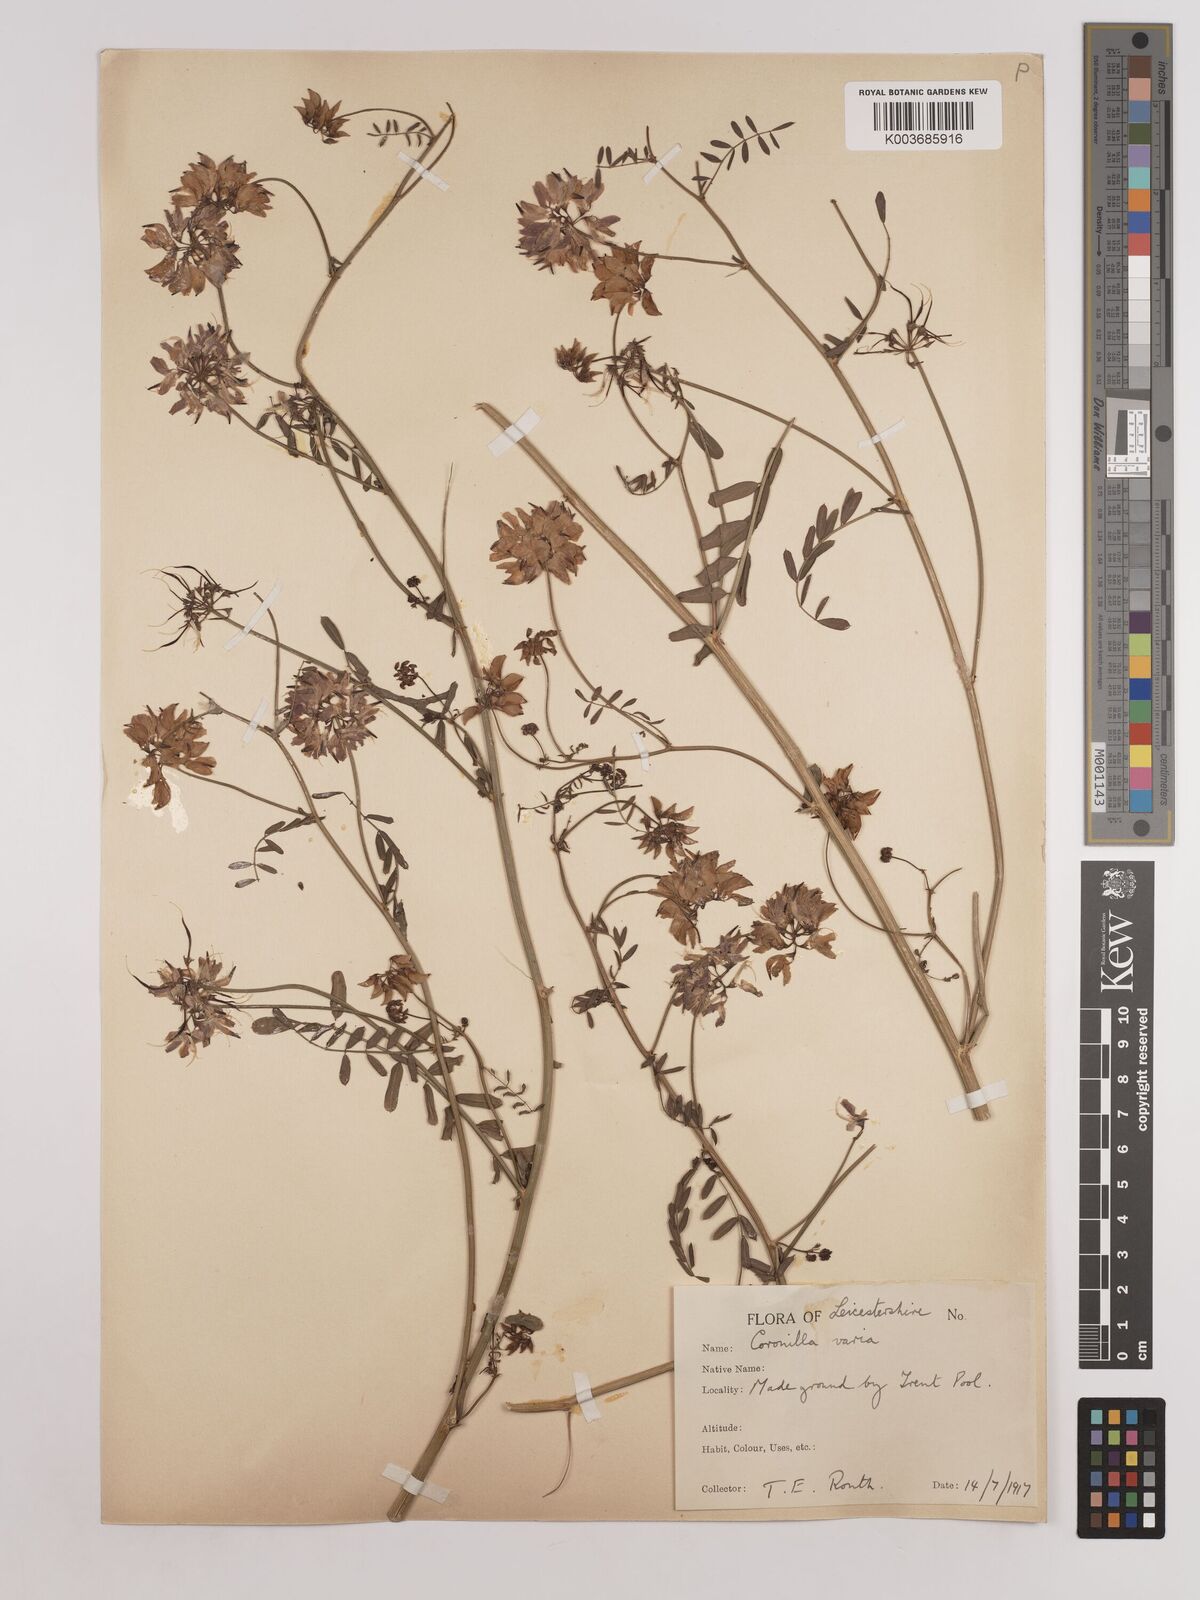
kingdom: Plantae
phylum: Tracheophyta
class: Magnoliopsida
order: Fabales
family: Fabaceae
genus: Coronilla
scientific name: Coronilla varia
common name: Crownvetch
